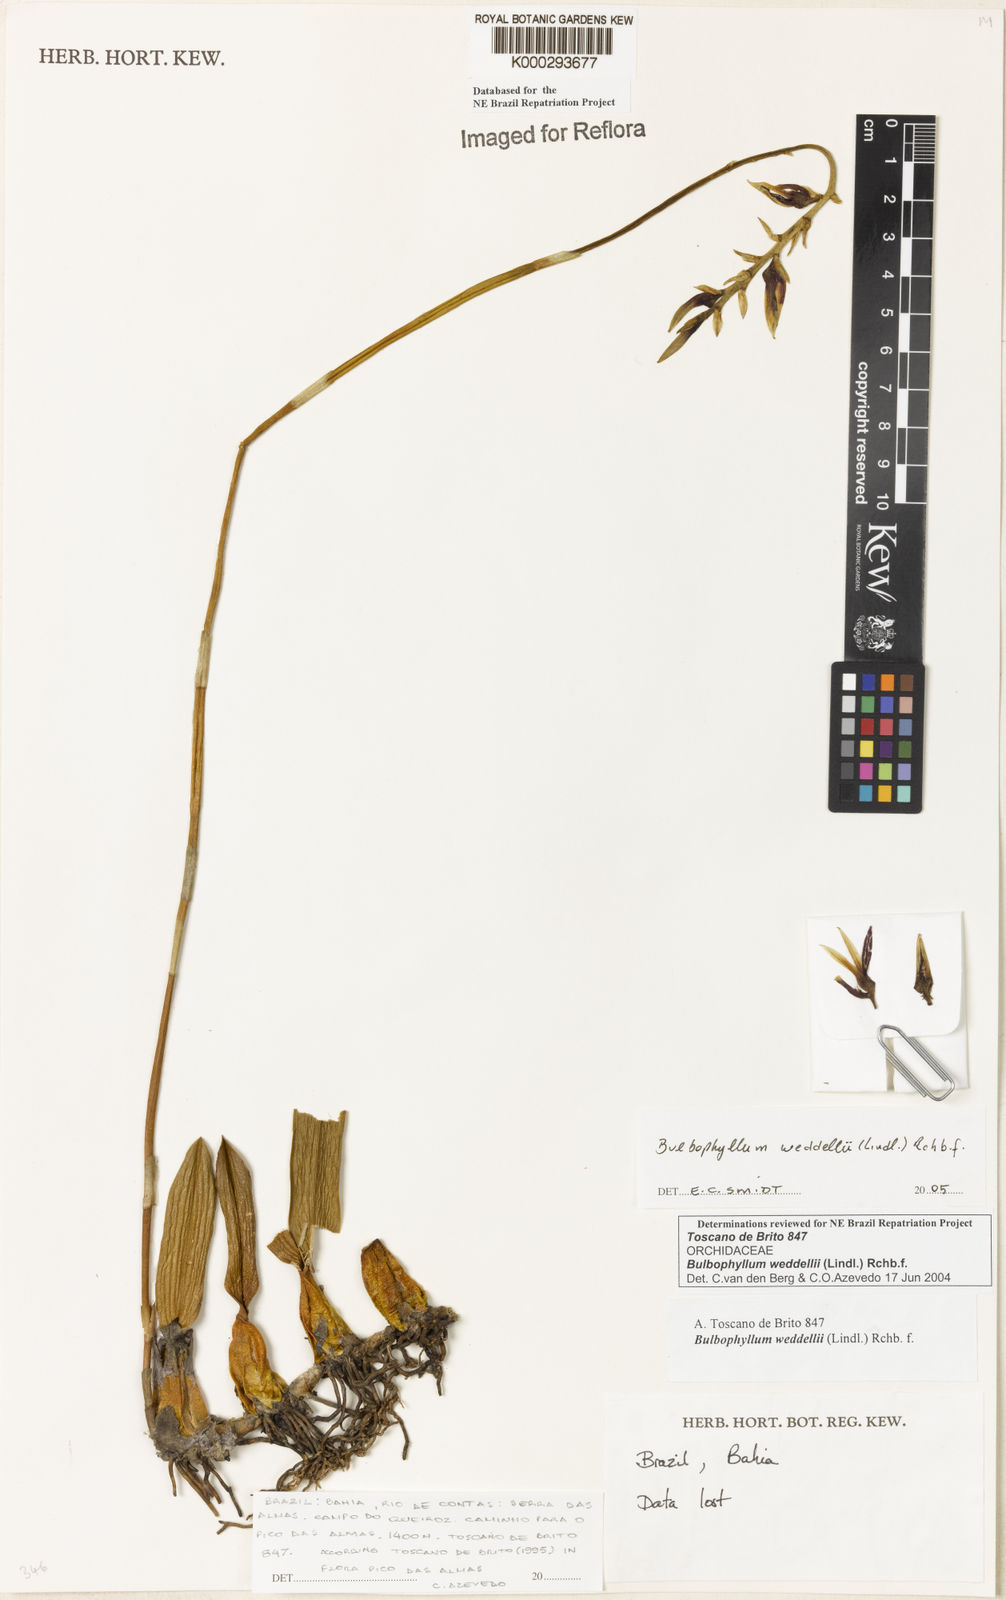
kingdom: Plantae
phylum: Tracheophyta
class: Liliopsida
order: Asparagales
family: Orchidaceae
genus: Bulbophyllum
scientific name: Bulbophyllum weddellii
